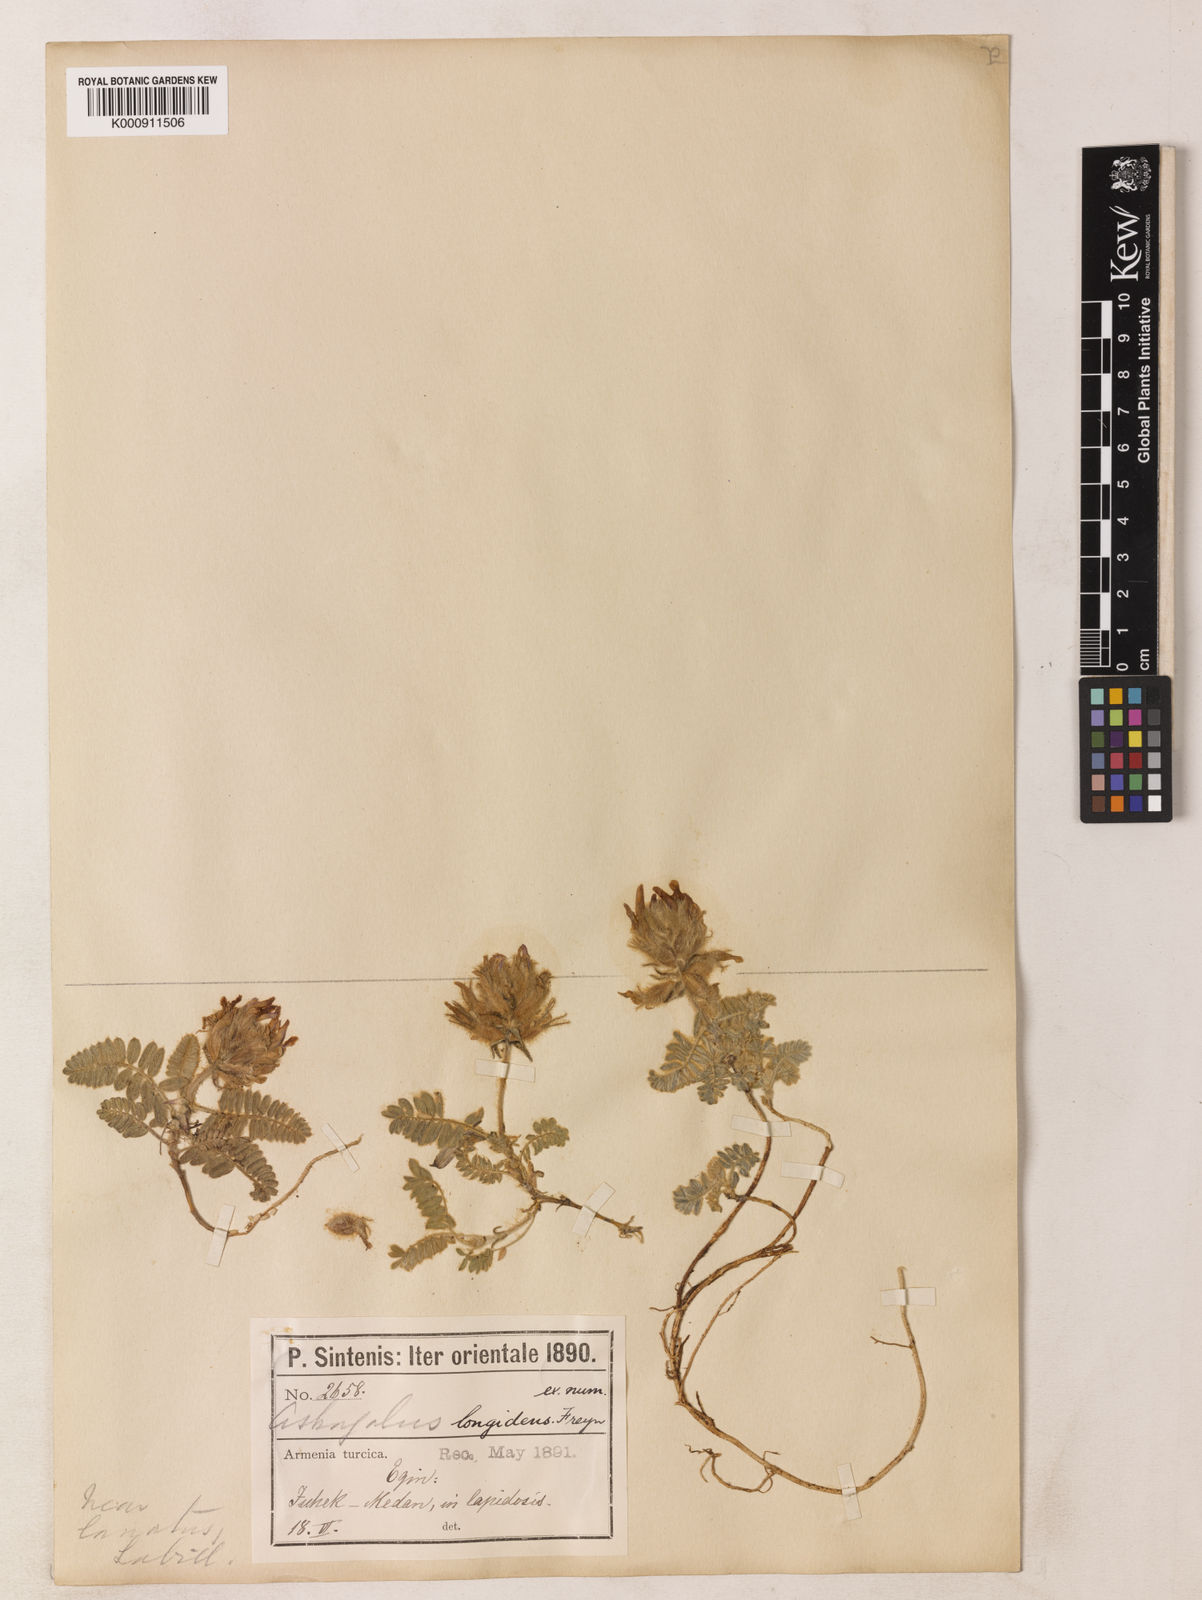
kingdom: Plantae
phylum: Tracheophyta
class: Magnoliopsida
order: Fabales
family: Fabaceae
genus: Astragalus
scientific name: Astragalus lineatus
